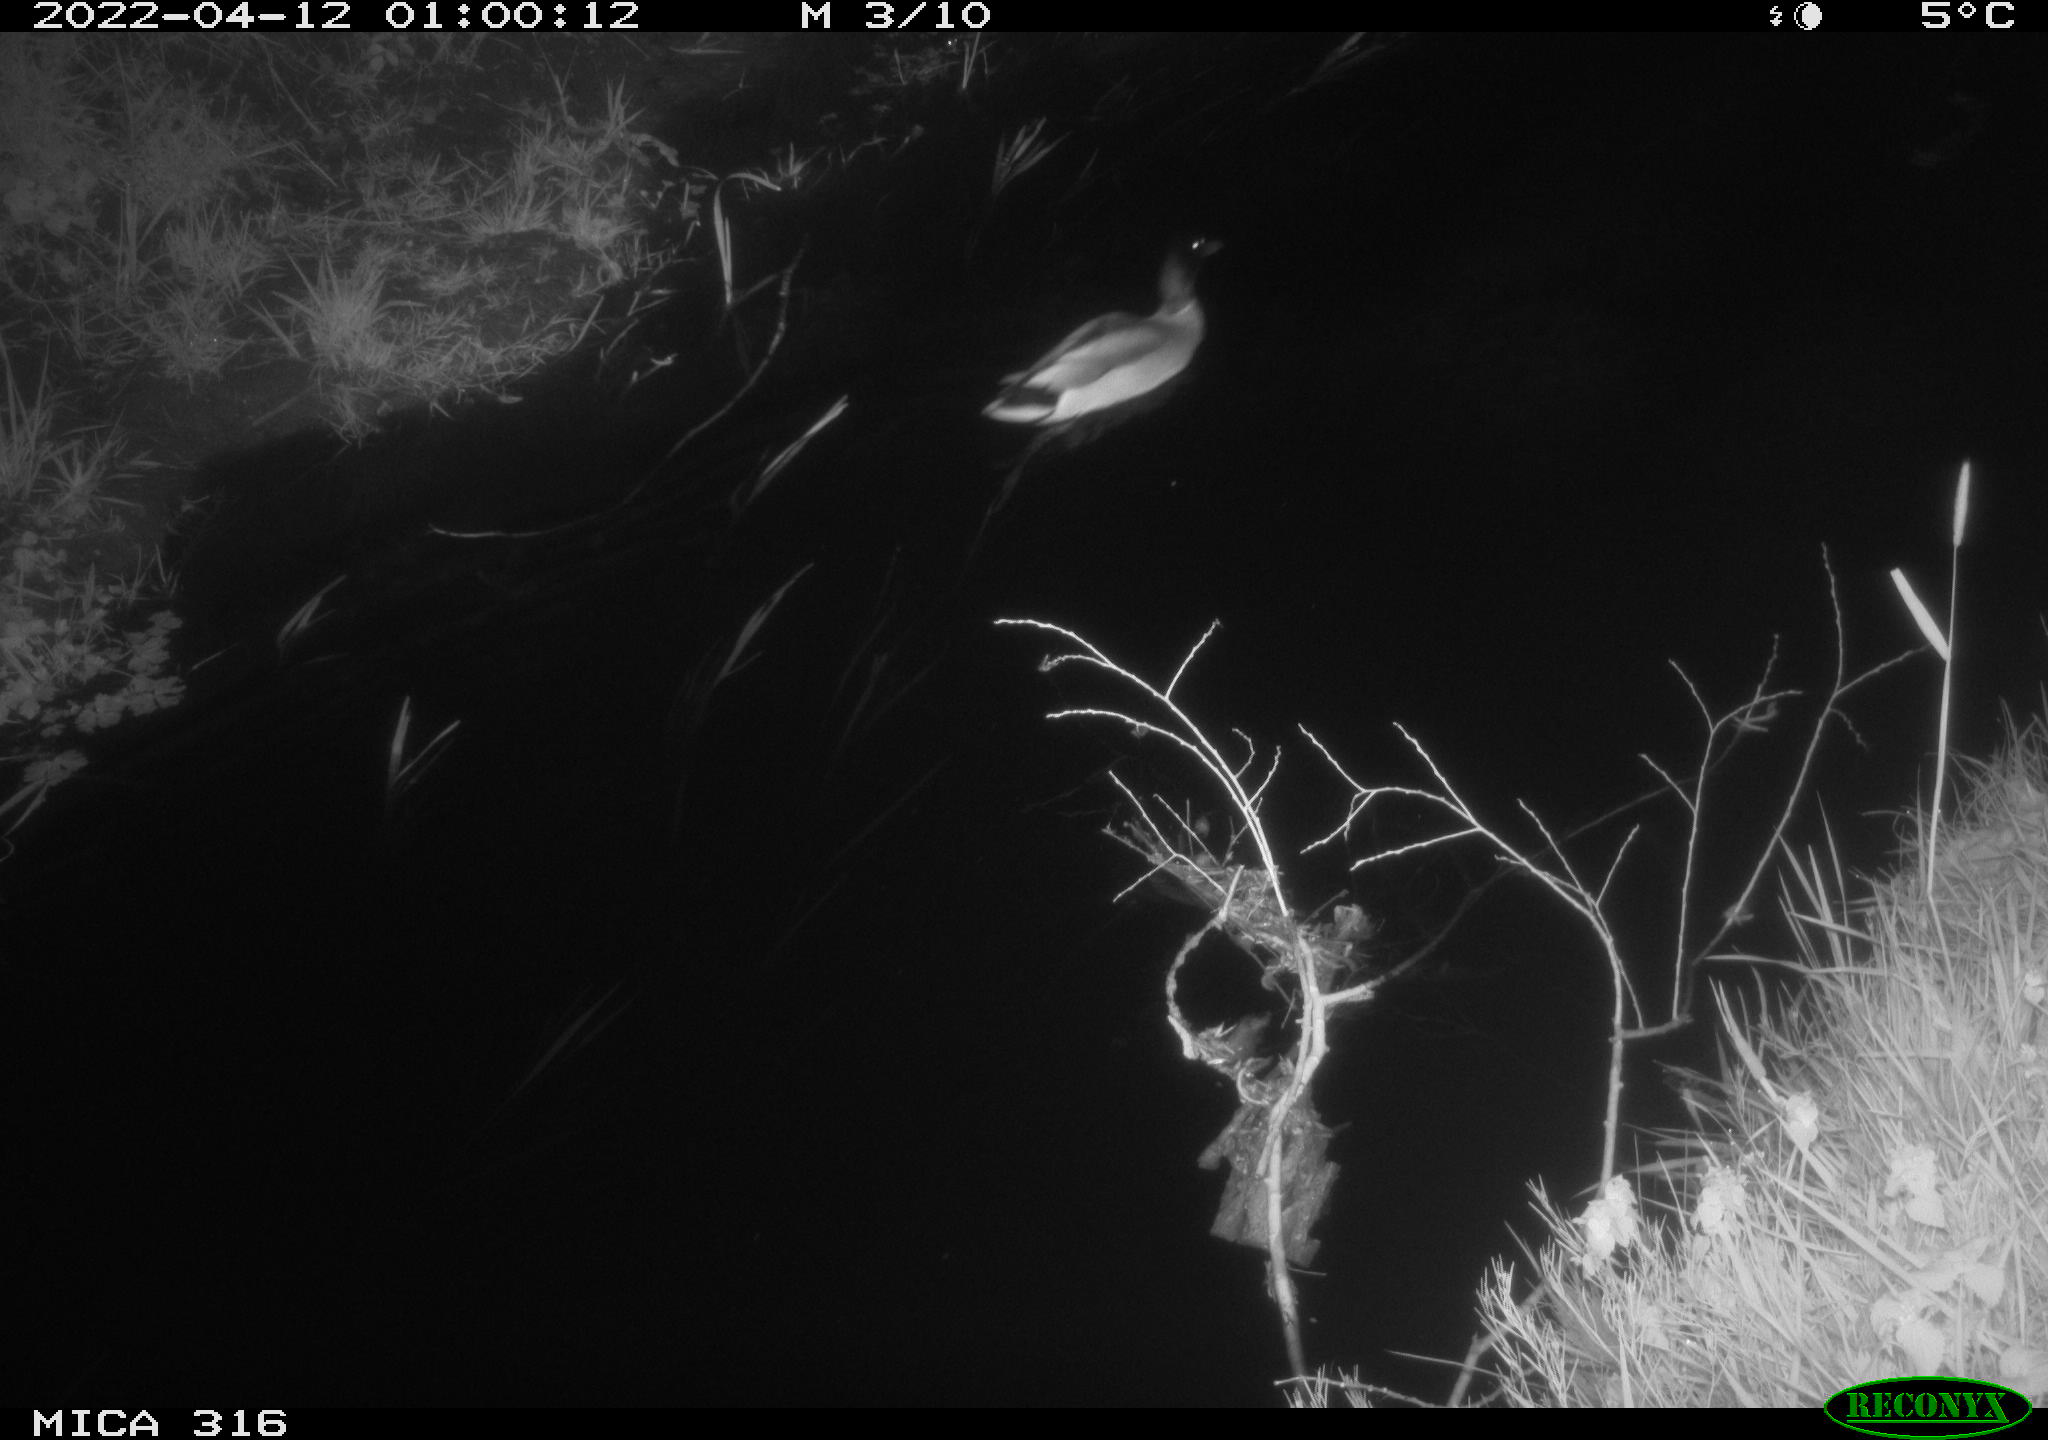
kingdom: Animalia
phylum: Chordata
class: Aves
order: Anseriformes
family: Anatidae
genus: Anas
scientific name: Anas platyrhynchos
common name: Mallard
